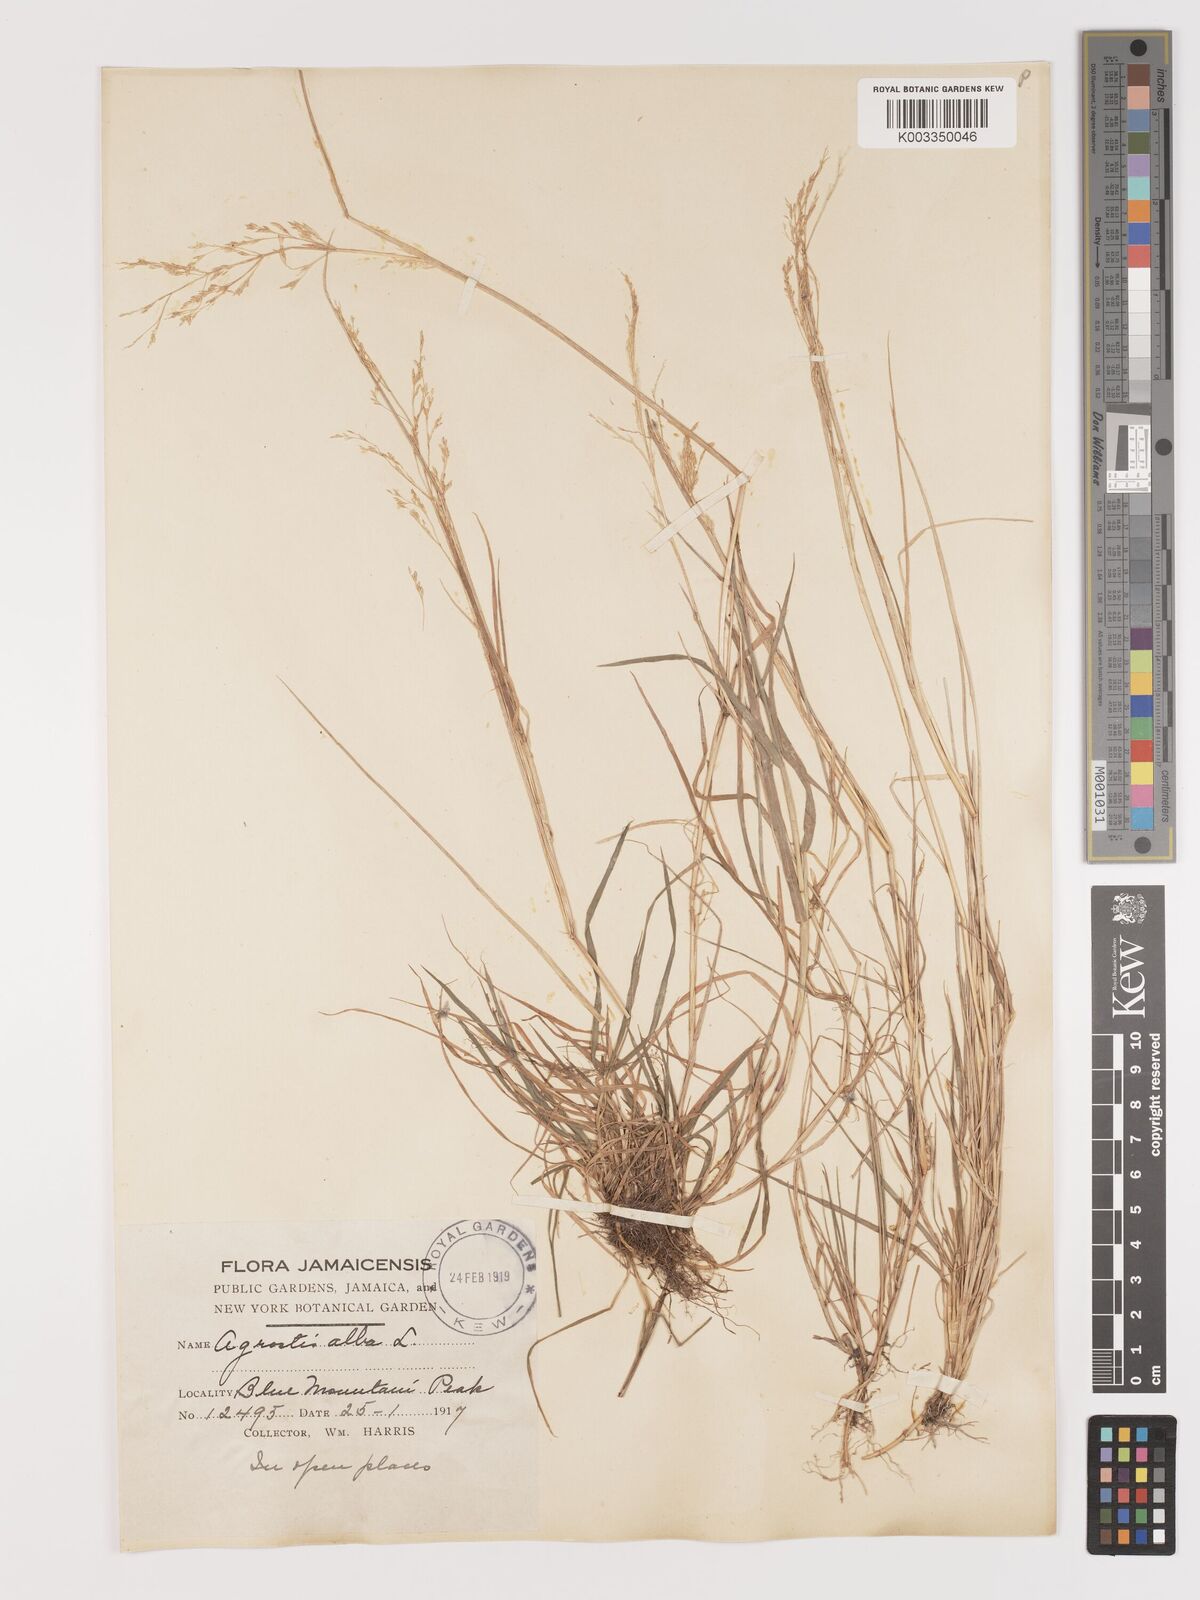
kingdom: Plantae
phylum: Tracheophyta
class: Liliopsida
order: Poales
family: Poaceae
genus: Agrostis
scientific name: Agrostis gigantea
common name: Black bent
